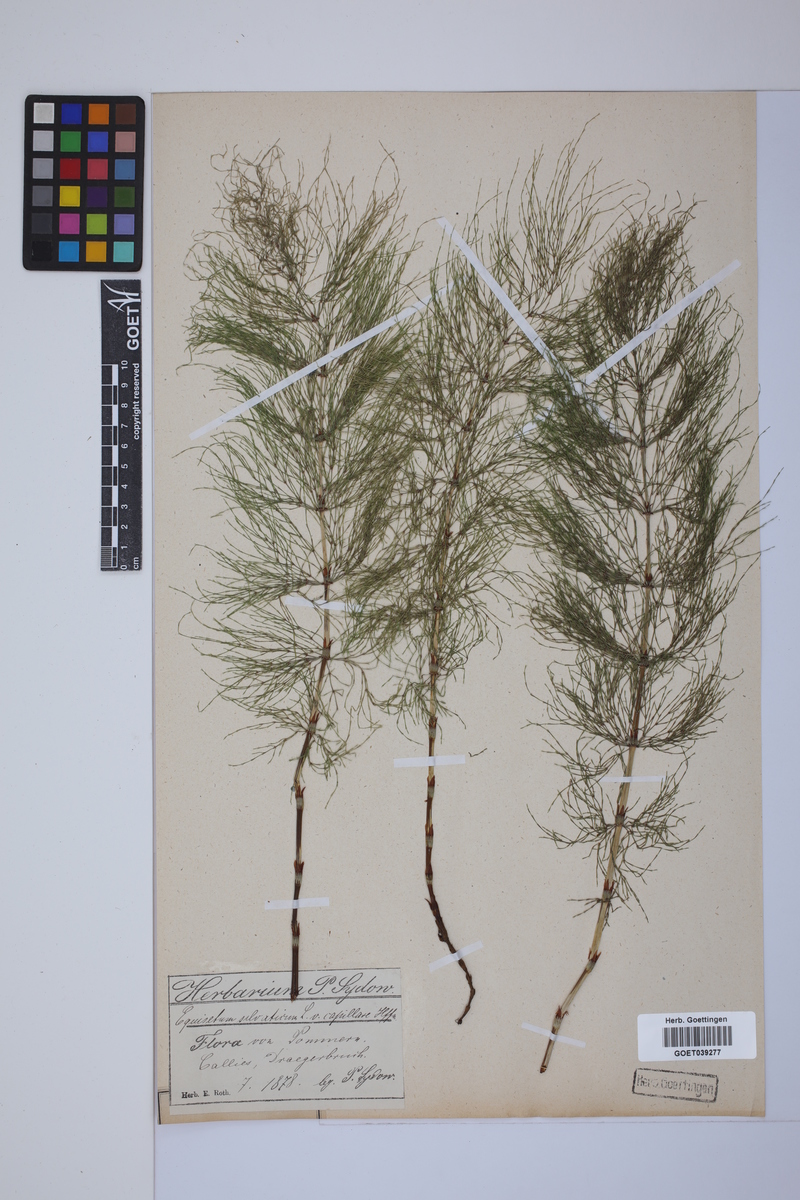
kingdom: Plantae
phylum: Tracheophyta
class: Polypodiopsida
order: Equisetales
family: Equisetaceae
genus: Equisetum
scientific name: Equisetum sylvaticum
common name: Wood horsetail
